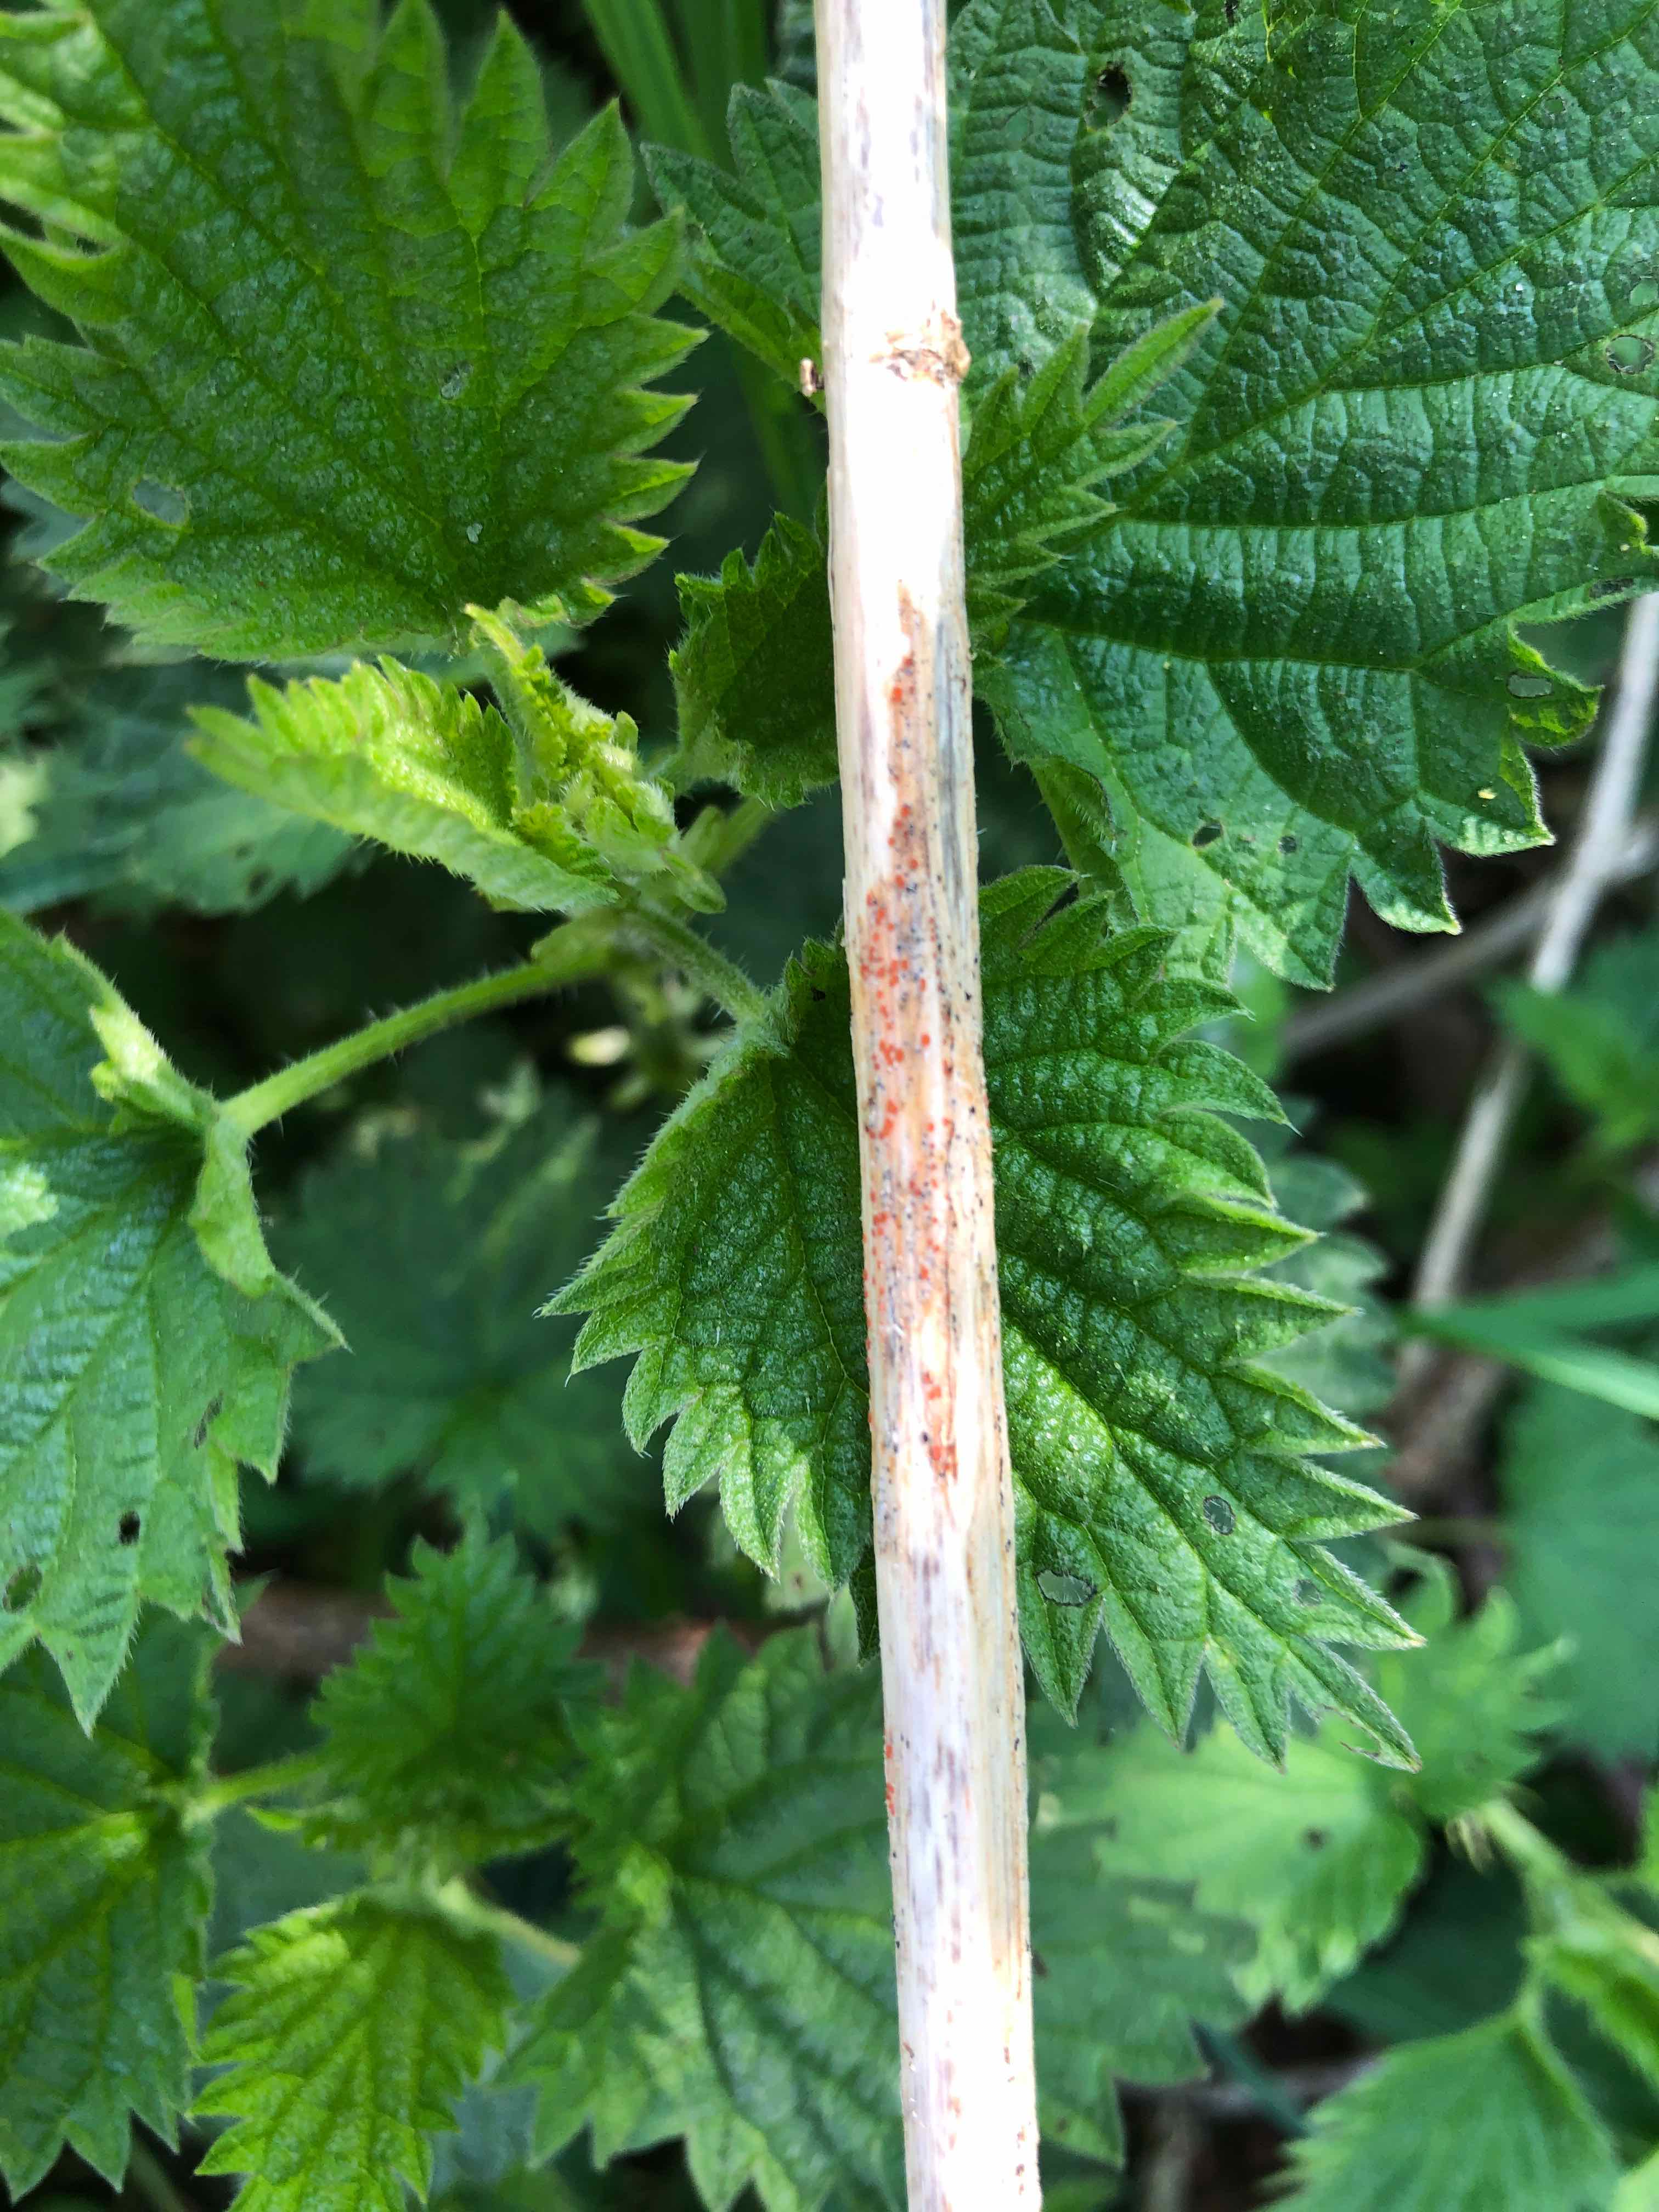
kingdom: Fungi
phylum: Ascomycota
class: Leotiomycetes
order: Helotiales
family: Calloriaceae
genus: Calloria
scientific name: Calloria urticae
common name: nælde-orangeskive
